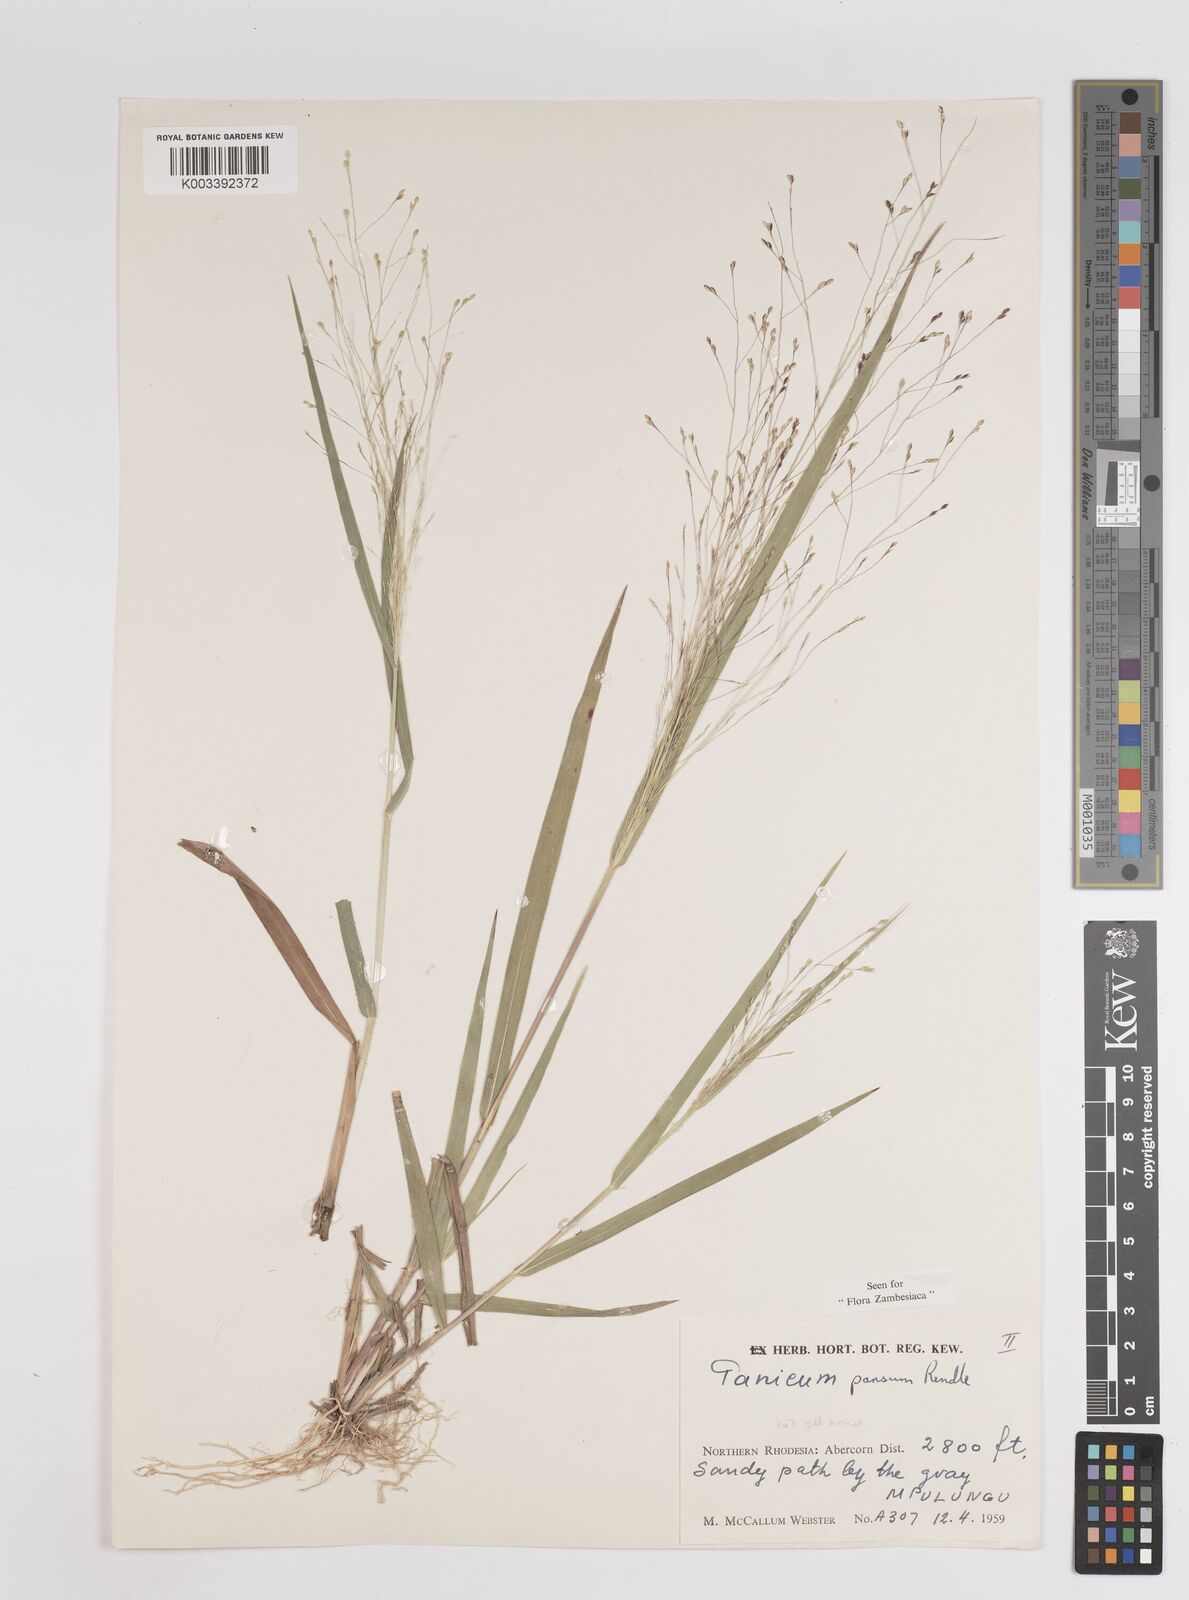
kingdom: Plantae
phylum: Tracheophyta
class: Liliopsida
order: Poales
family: Poaceae
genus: Panicum
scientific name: Panicum pansum
